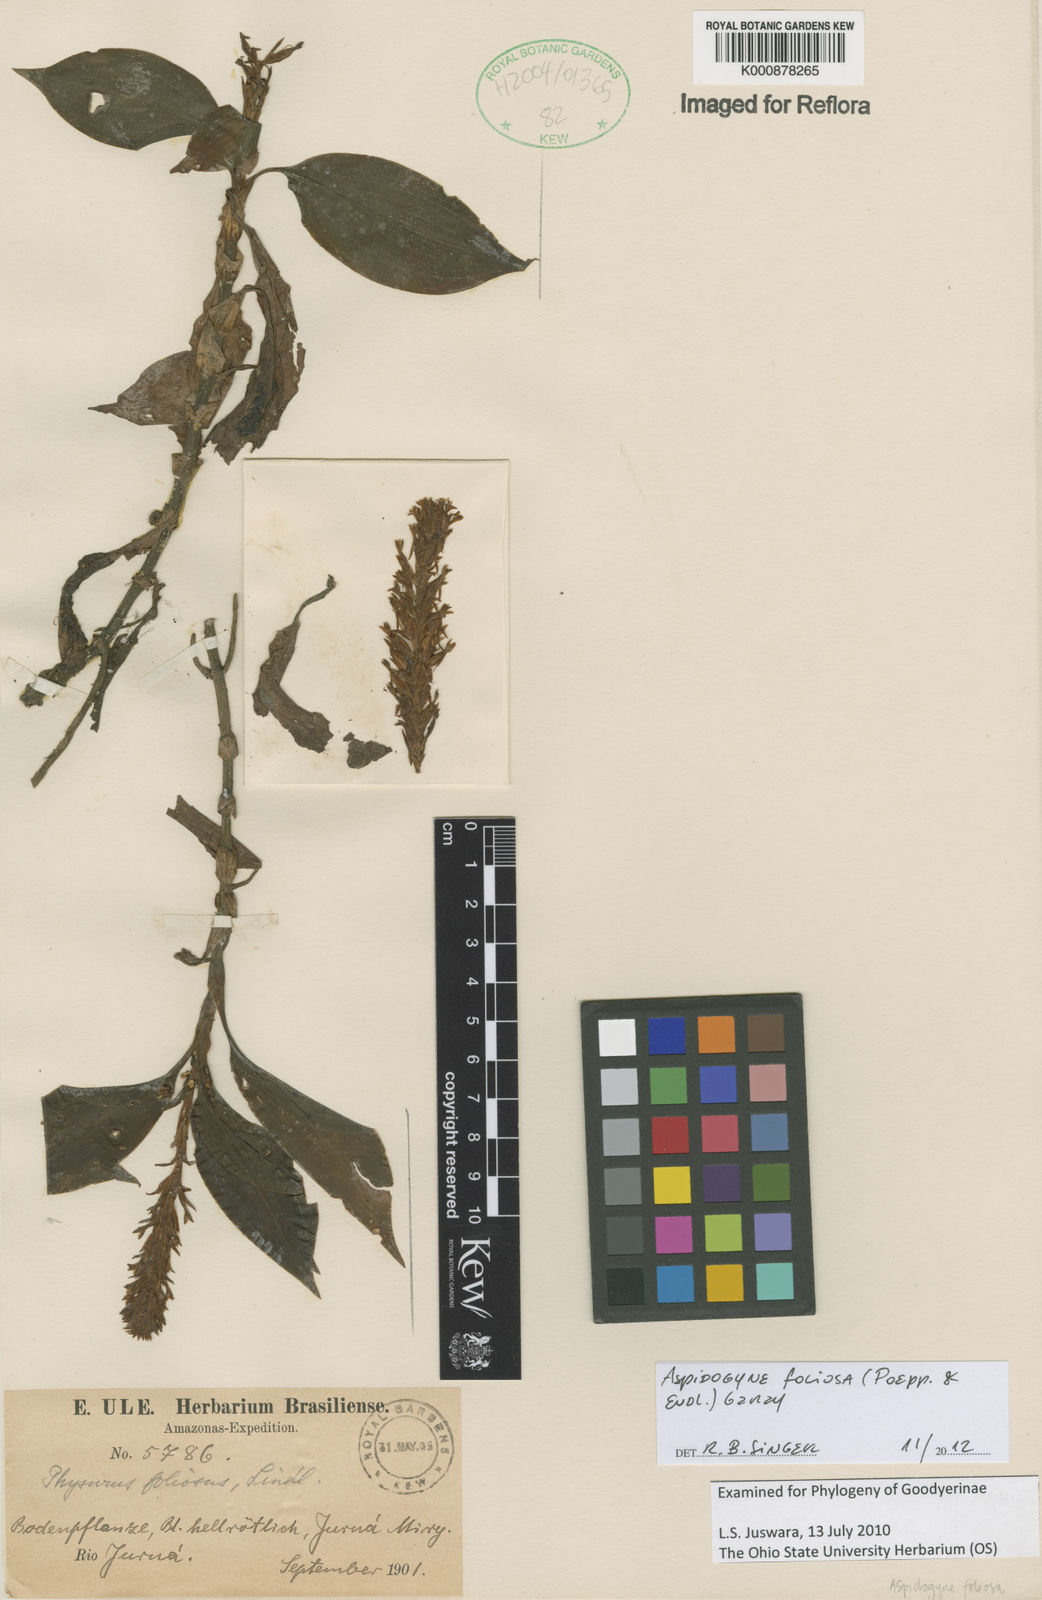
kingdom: Plantae
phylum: Tracheophyta
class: Liliopsida
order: Asparagales
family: Orchidaceae
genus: Aspidogyne
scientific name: Aspidogyne foliosa
